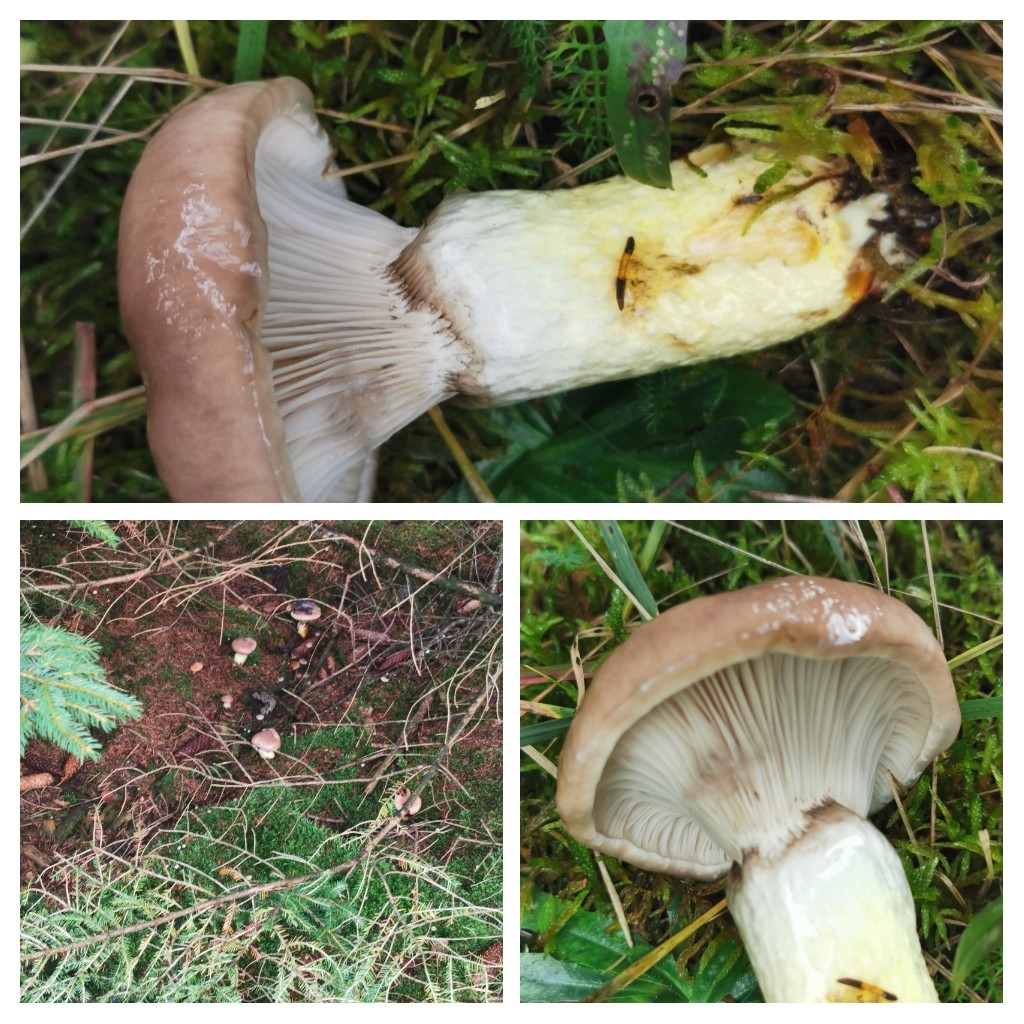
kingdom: Fungi
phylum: Basidiomycota
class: Agaricomycetes
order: Boletales
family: Gomphidiaceae
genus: Gomphidius
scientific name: Gomphidius glutinosus
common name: grå slimslør
